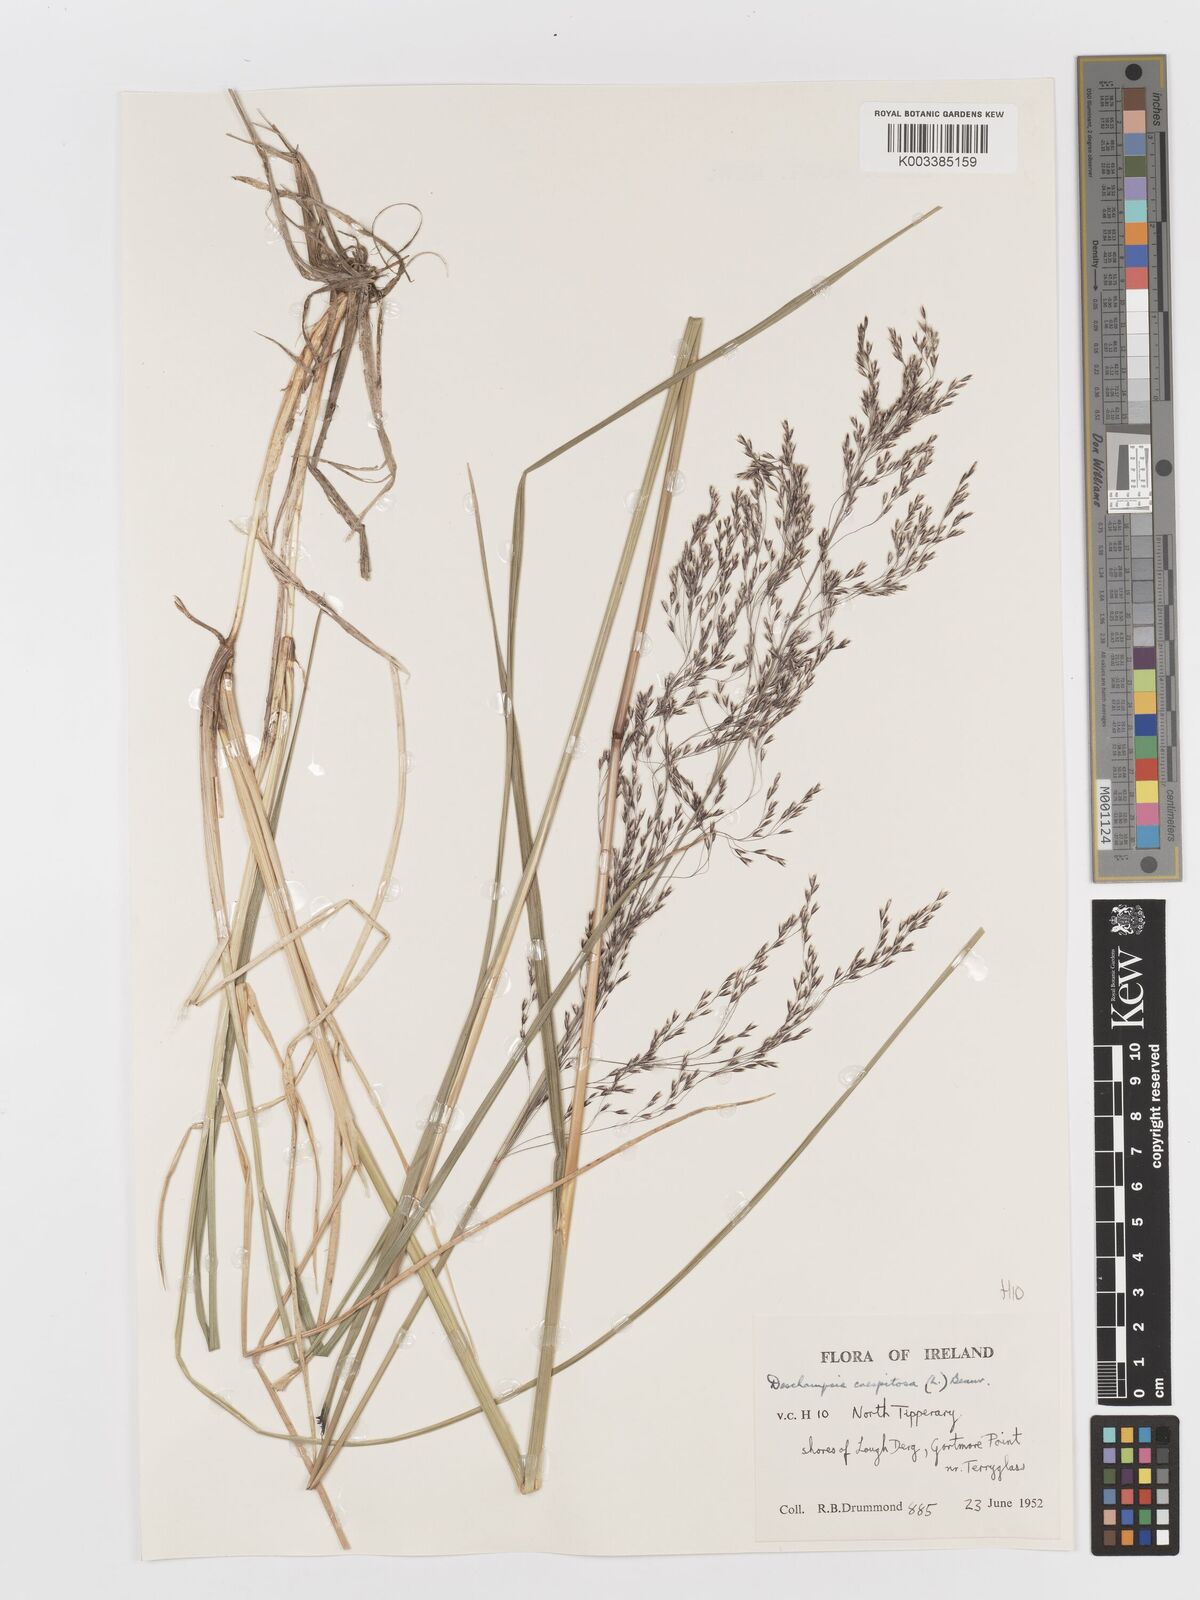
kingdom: Plantae
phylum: Tracheophyta
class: Liliopsida
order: Poales
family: Poaceae
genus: Deschampsia
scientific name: Deschampsia cespitosa
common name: Tufted hair-grass
